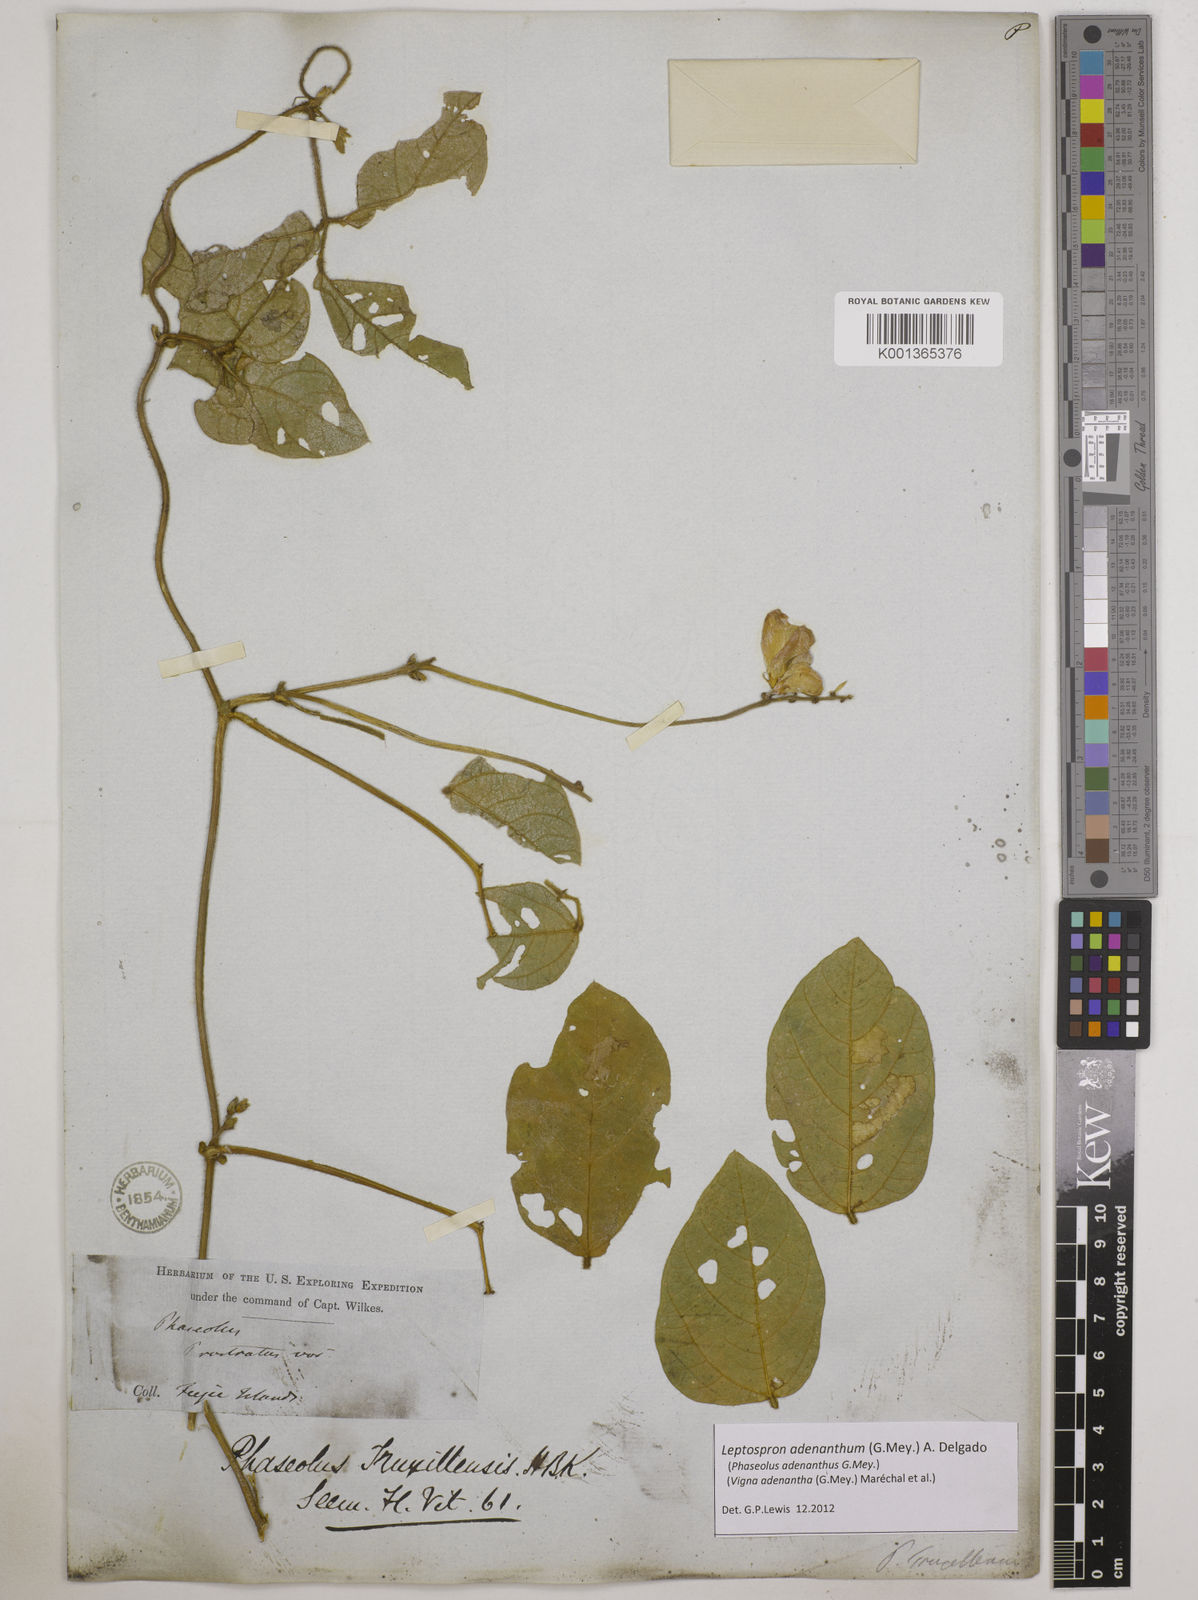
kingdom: Plantae
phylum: Tracheophyta
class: Magnoliopsida
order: Fabales
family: Fabaceae
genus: Leptospron
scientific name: Leptospron adenanthum
